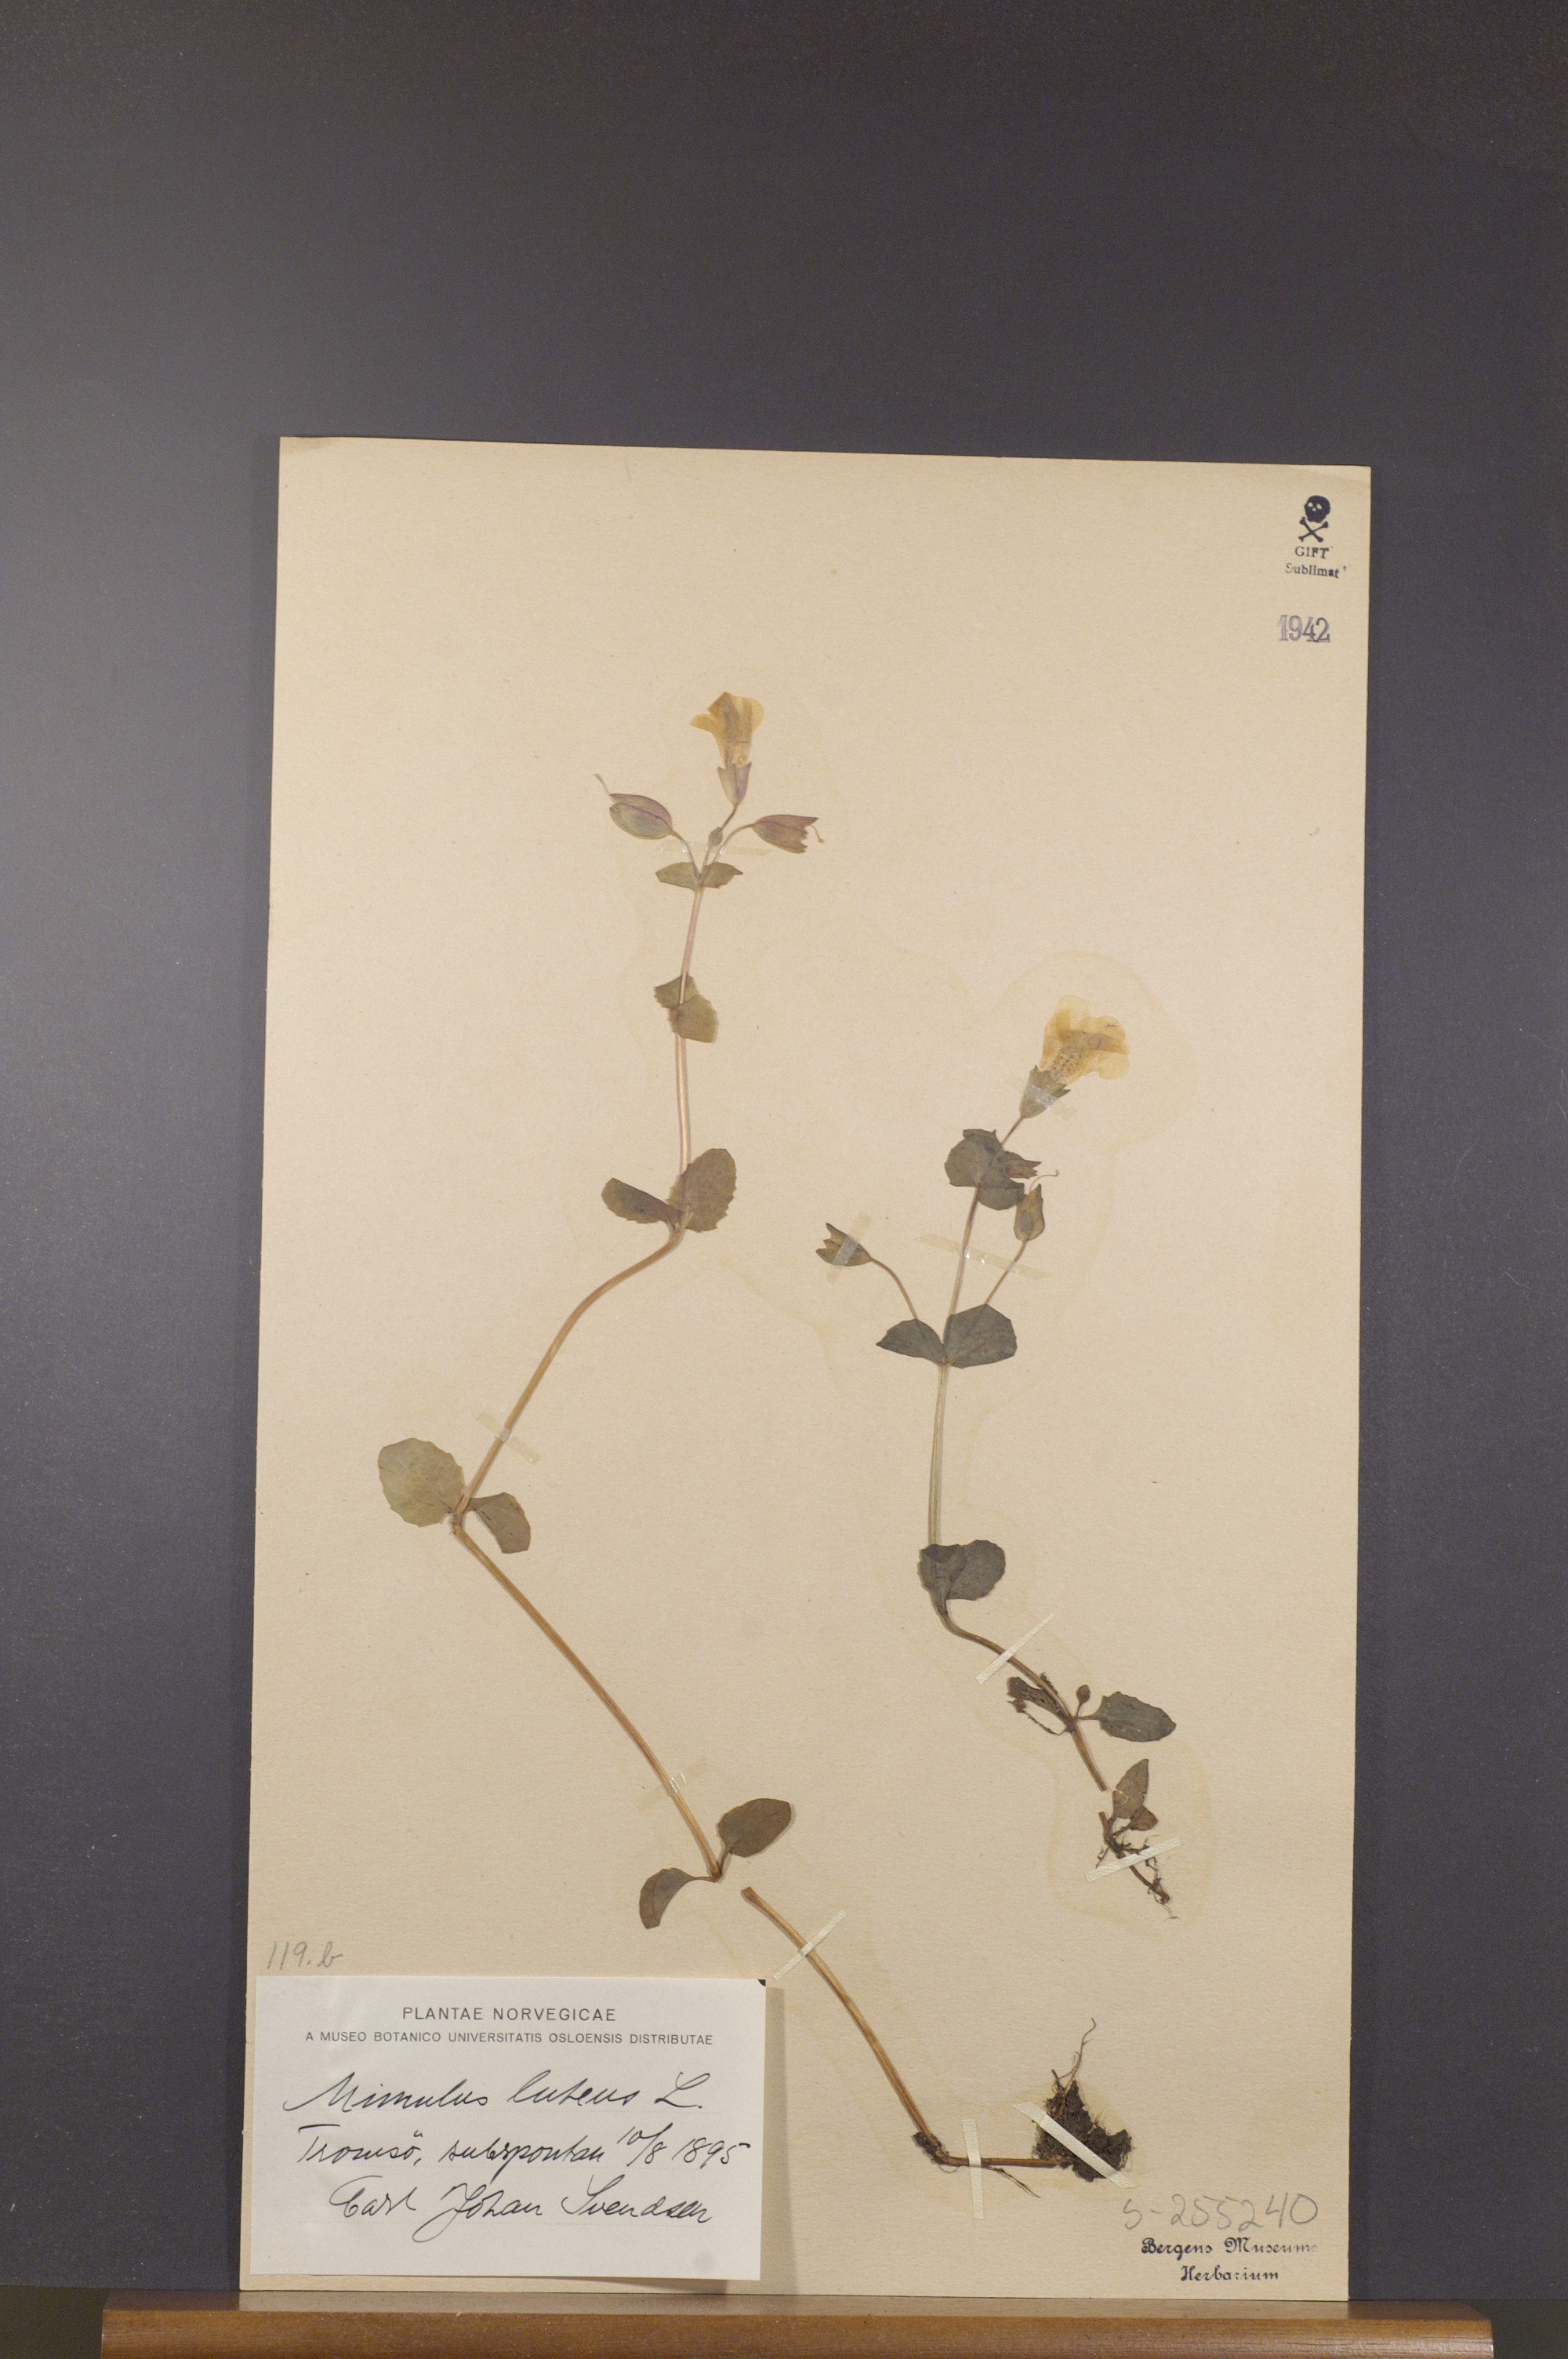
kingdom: Plantae
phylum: Tracheophyta
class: Magnoliopsida
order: Lamiales
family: Phrymaceae
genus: Erythranthe
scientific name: Erythranthe lutea
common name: Yellow monkey-flower
